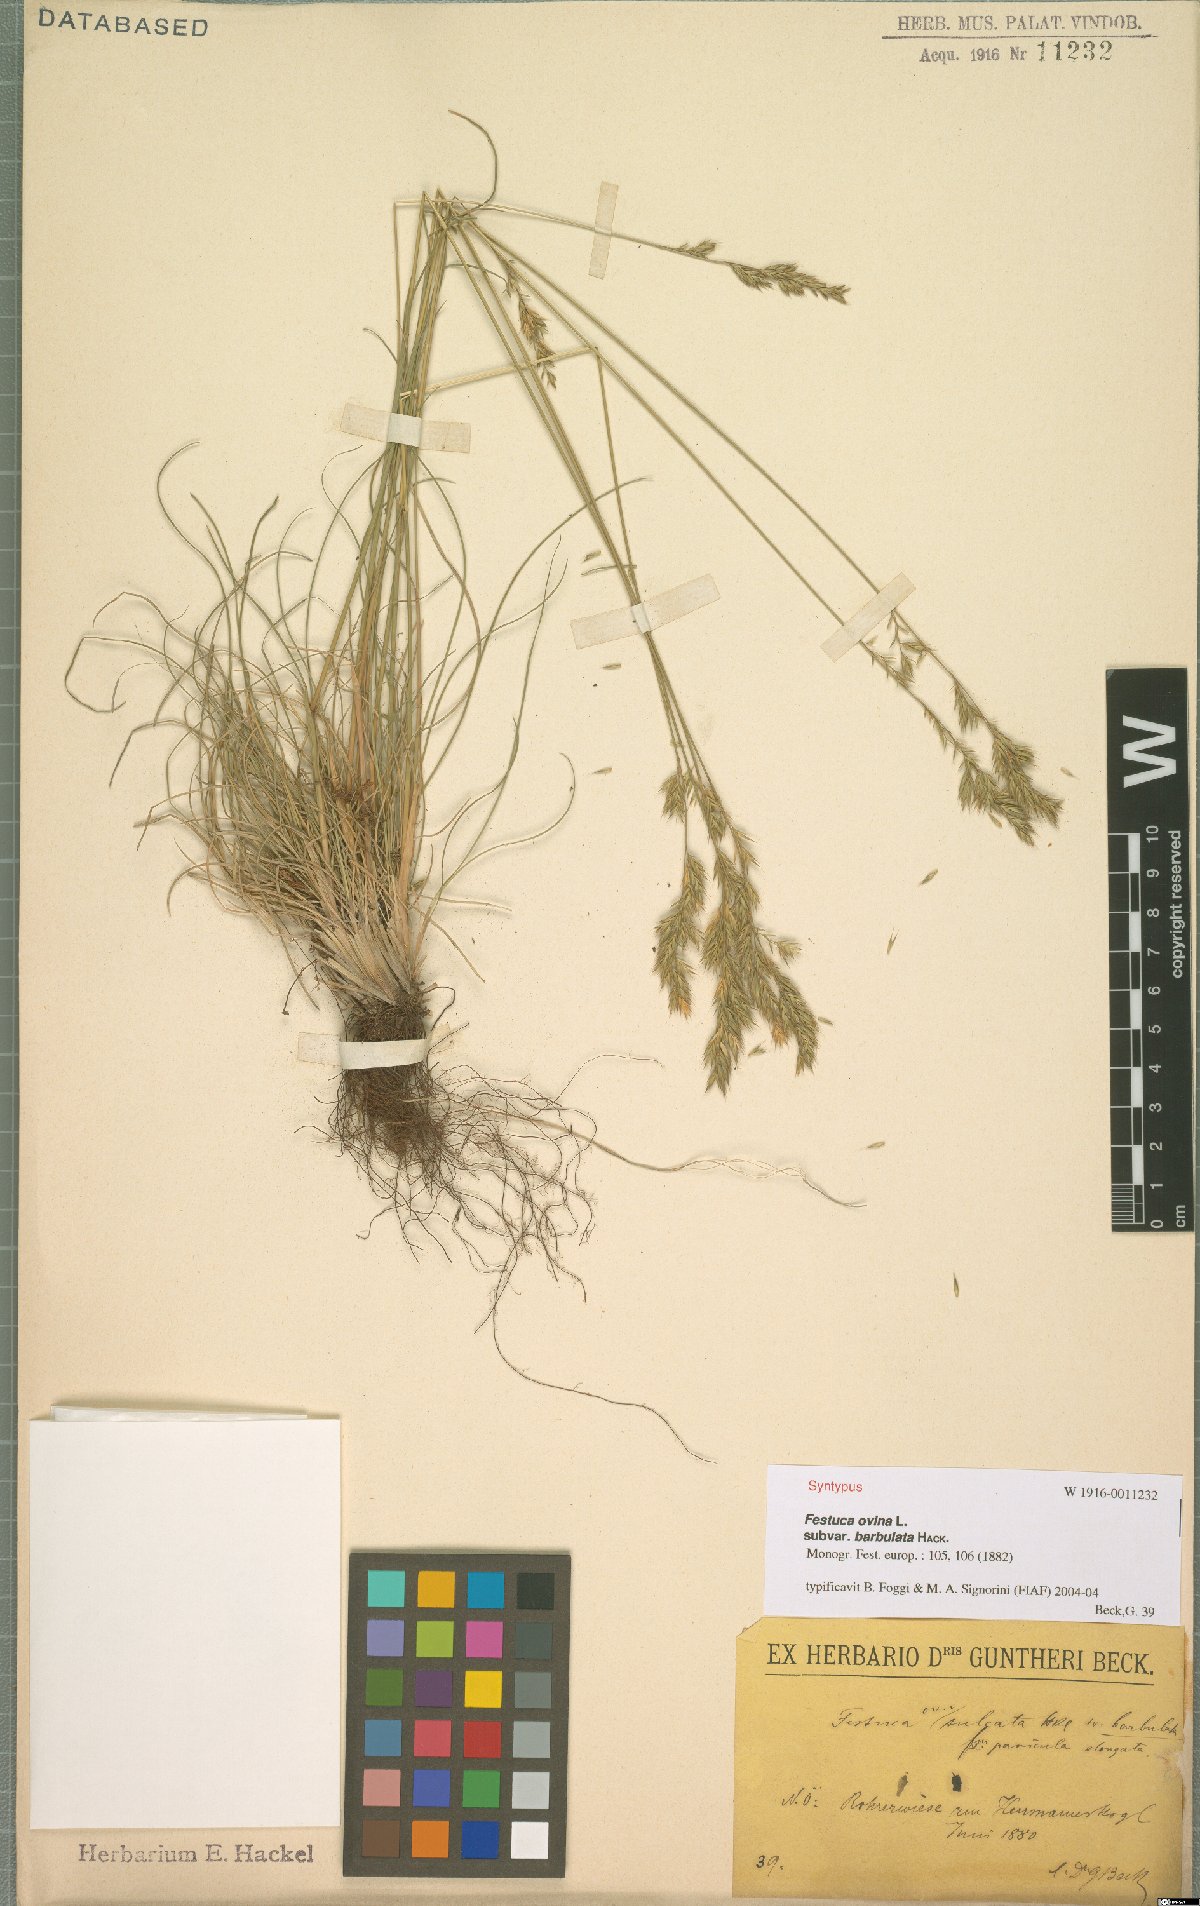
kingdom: Plantae
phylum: Tracheophyta
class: Liliopsida
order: Poales
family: Poaceae
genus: Festuca
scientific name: Festuca ovina
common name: Sheep fescue
